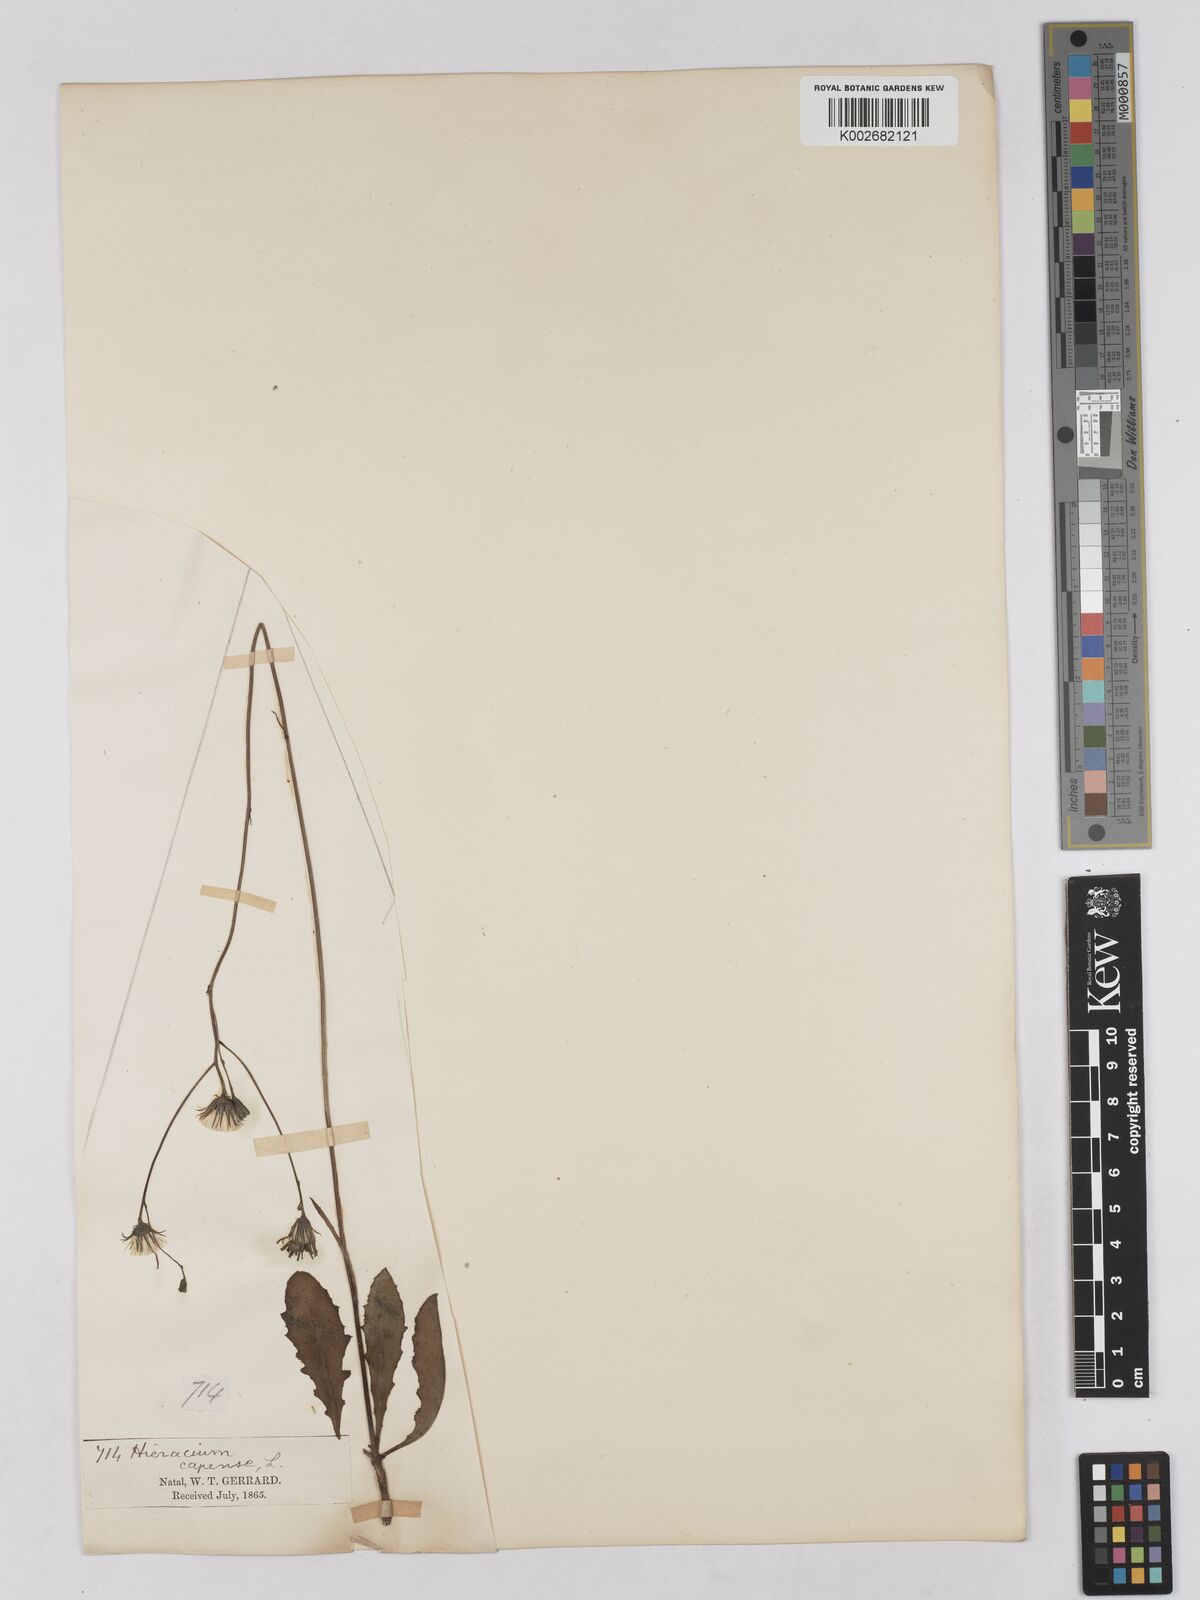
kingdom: Plantae
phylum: Tracheophyta
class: Magnoliopsida
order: Asterales
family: Asteraceae
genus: Tolpis
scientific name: Tolpis capensis
